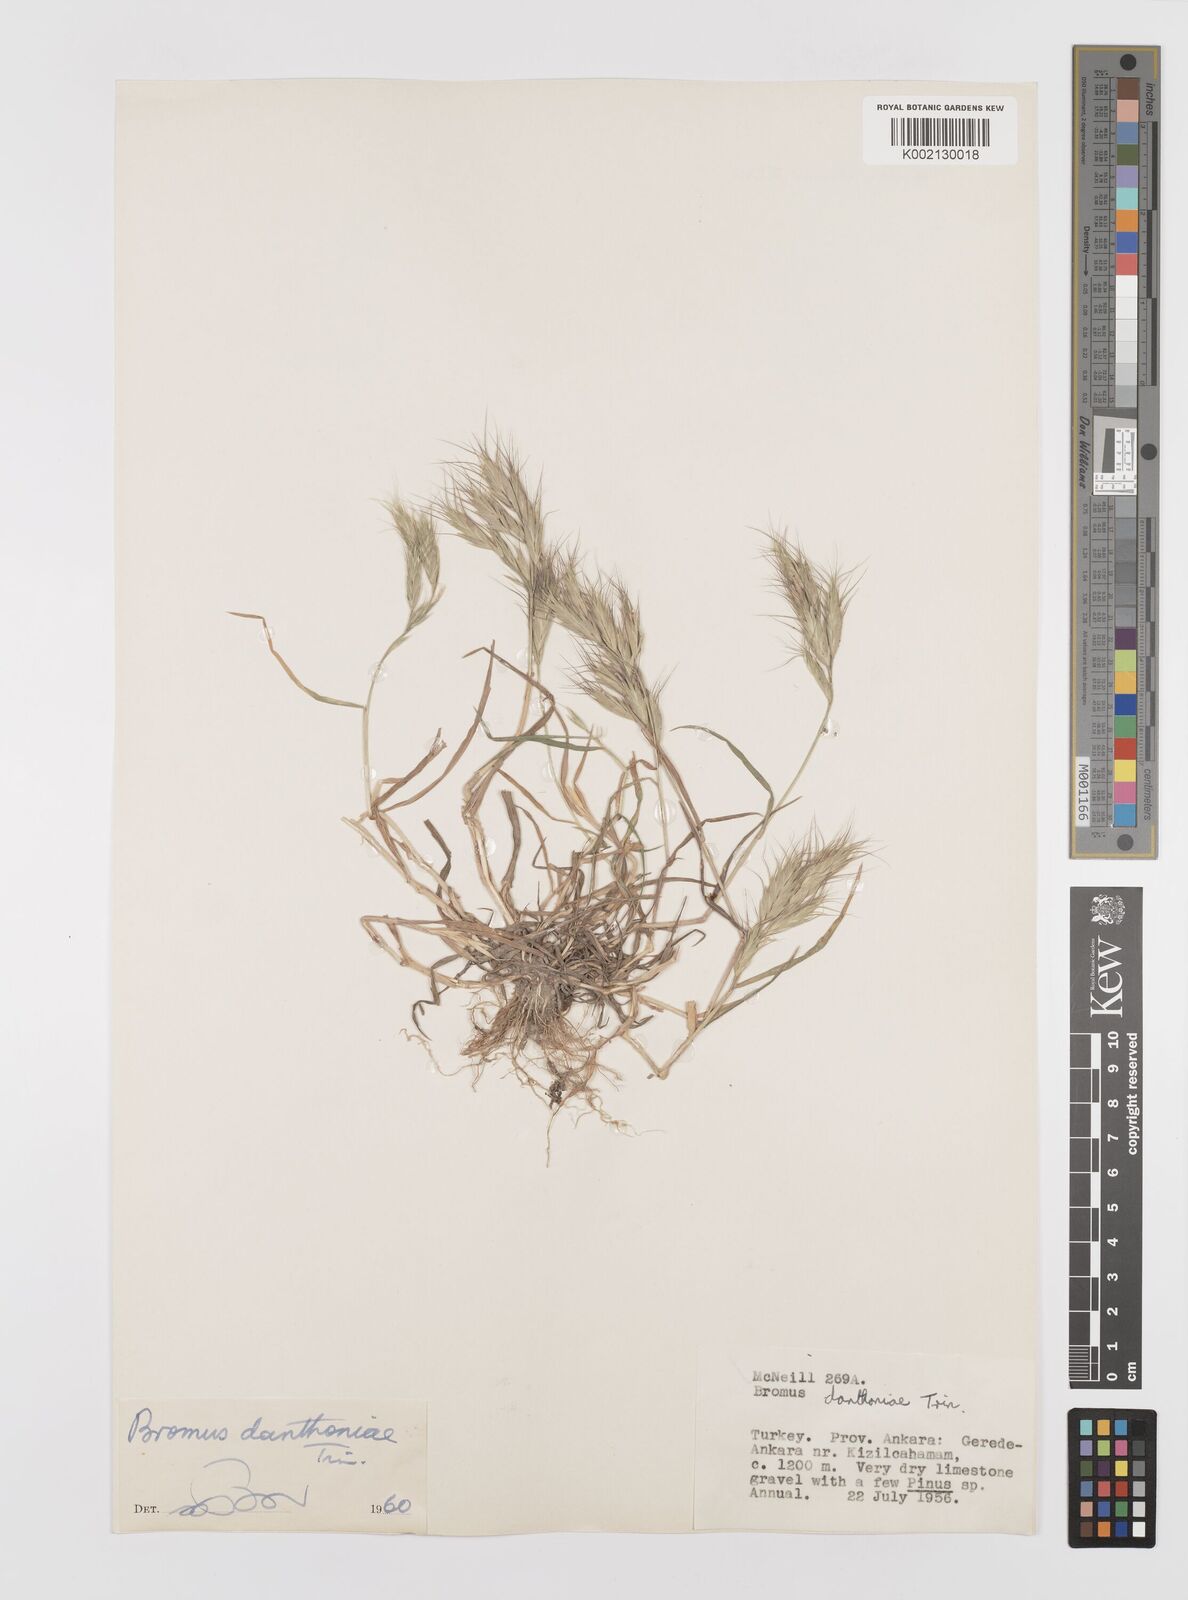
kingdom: Plantae
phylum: Tracheophyta
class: Liliopsida
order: Poales
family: Poaceae
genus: Bromus
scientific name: Bromus danthoniae
